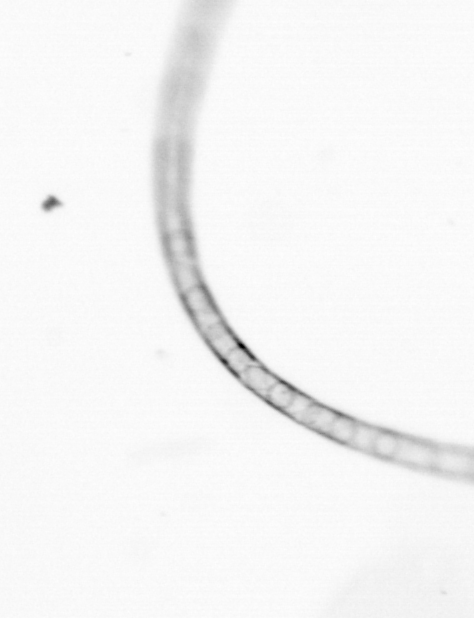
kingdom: Chromista
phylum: Ochrophyta
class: Bacillariophyceae
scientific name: Bacillariophyceae
